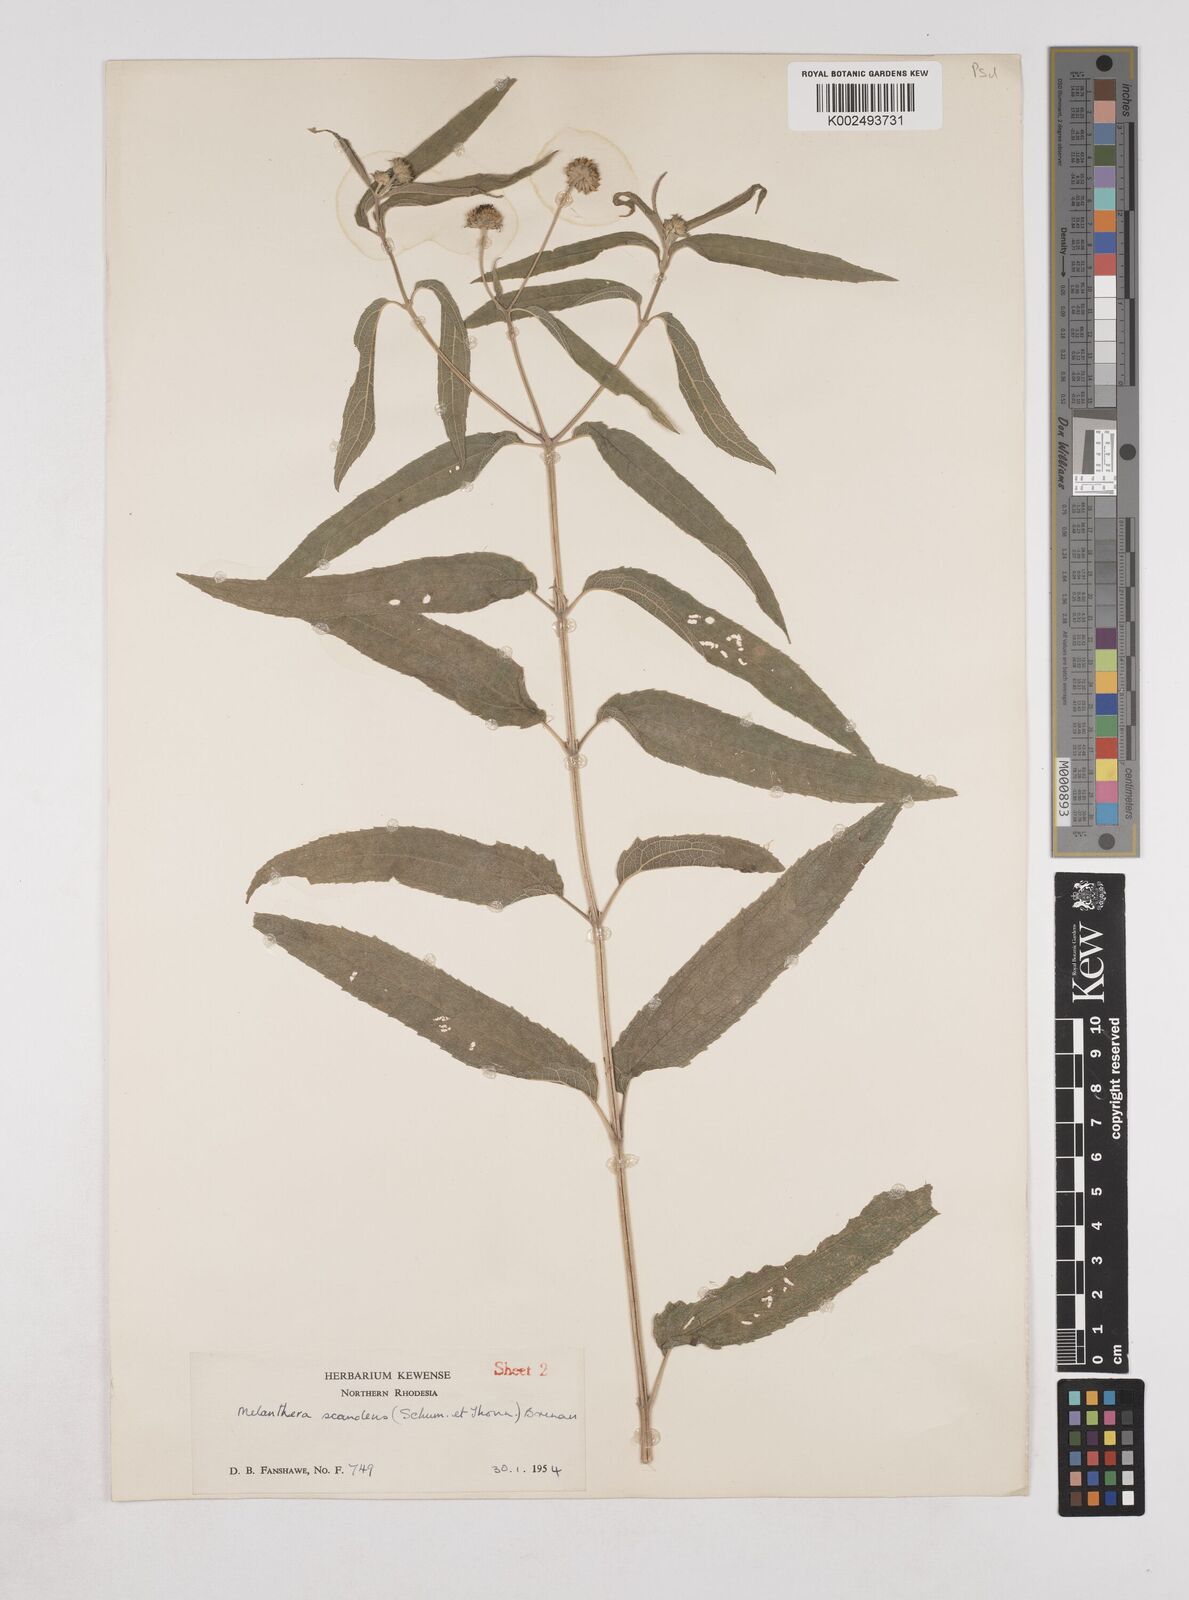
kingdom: Plantae
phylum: Tracheophyta
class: Magnoliopsida
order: Asterales
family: Asteraceae
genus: Lipotriche
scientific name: Lipotriche scandens
